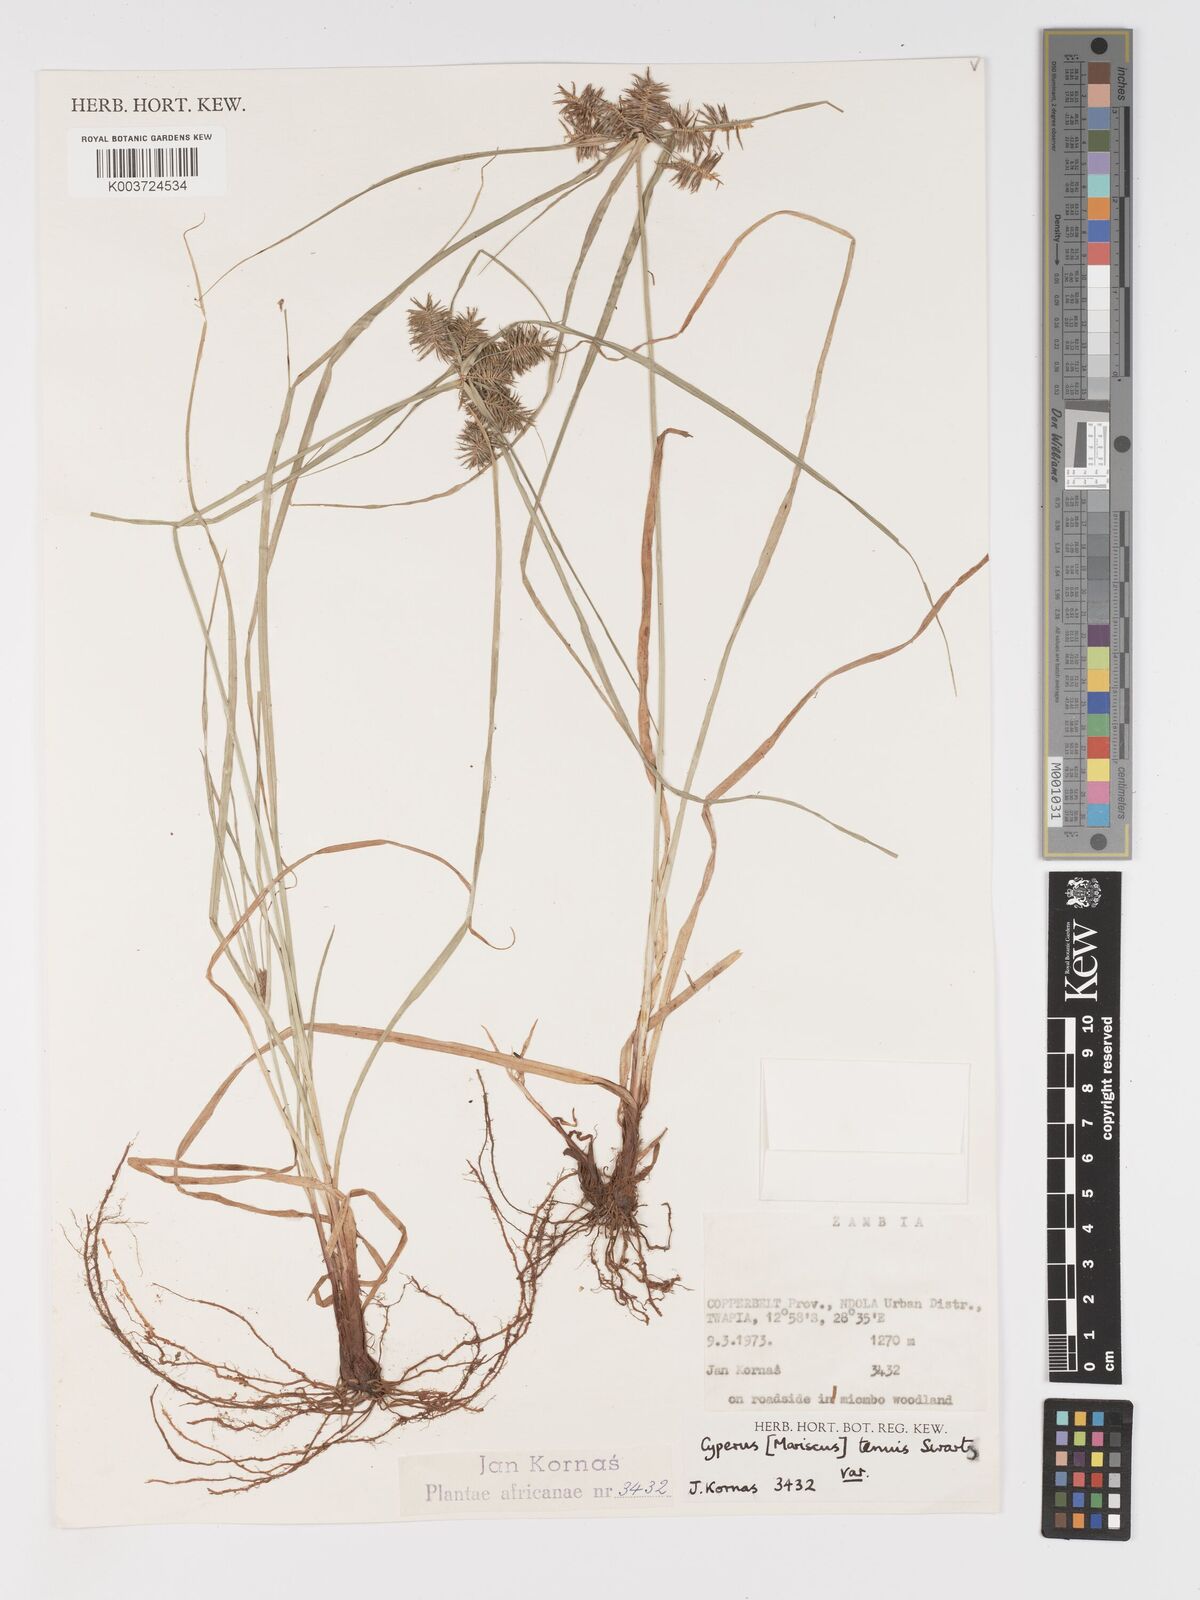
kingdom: Plantae
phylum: Tracheophyta
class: Liliopsida
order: Poales
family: Cyperaceae
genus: Cyperus
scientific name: Cyperus tenuis
